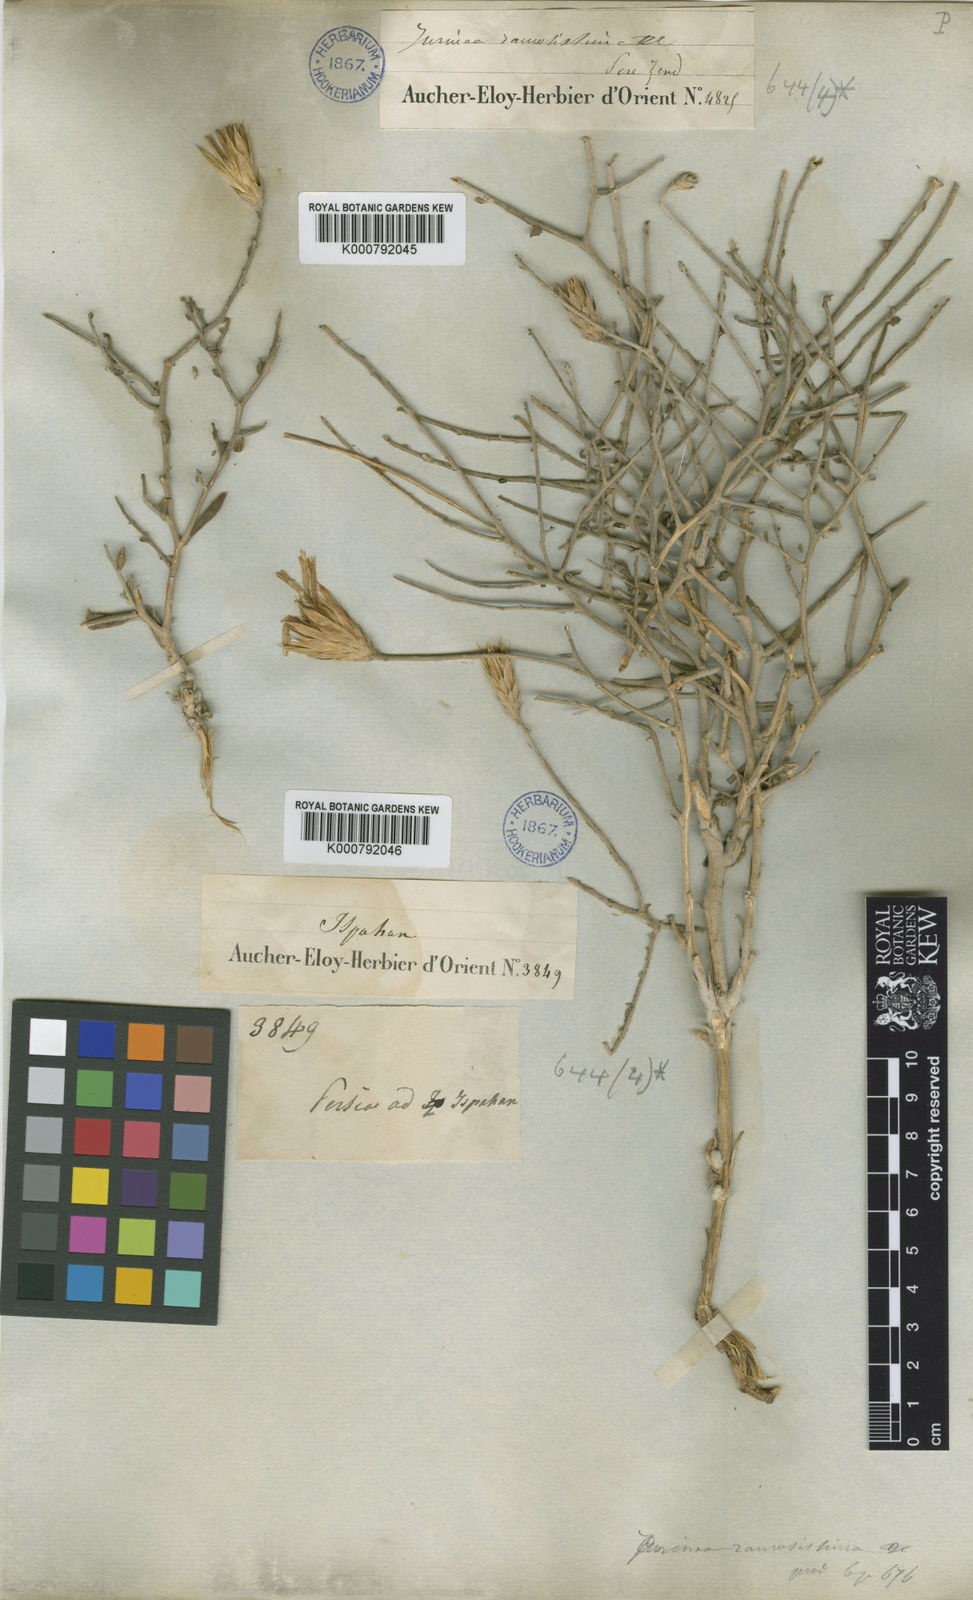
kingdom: Plantae
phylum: Tracheophyta
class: Magnoliopsida
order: Asterales
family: Asteraceae
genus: Jurinea
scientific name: Jurinea ramosissima
